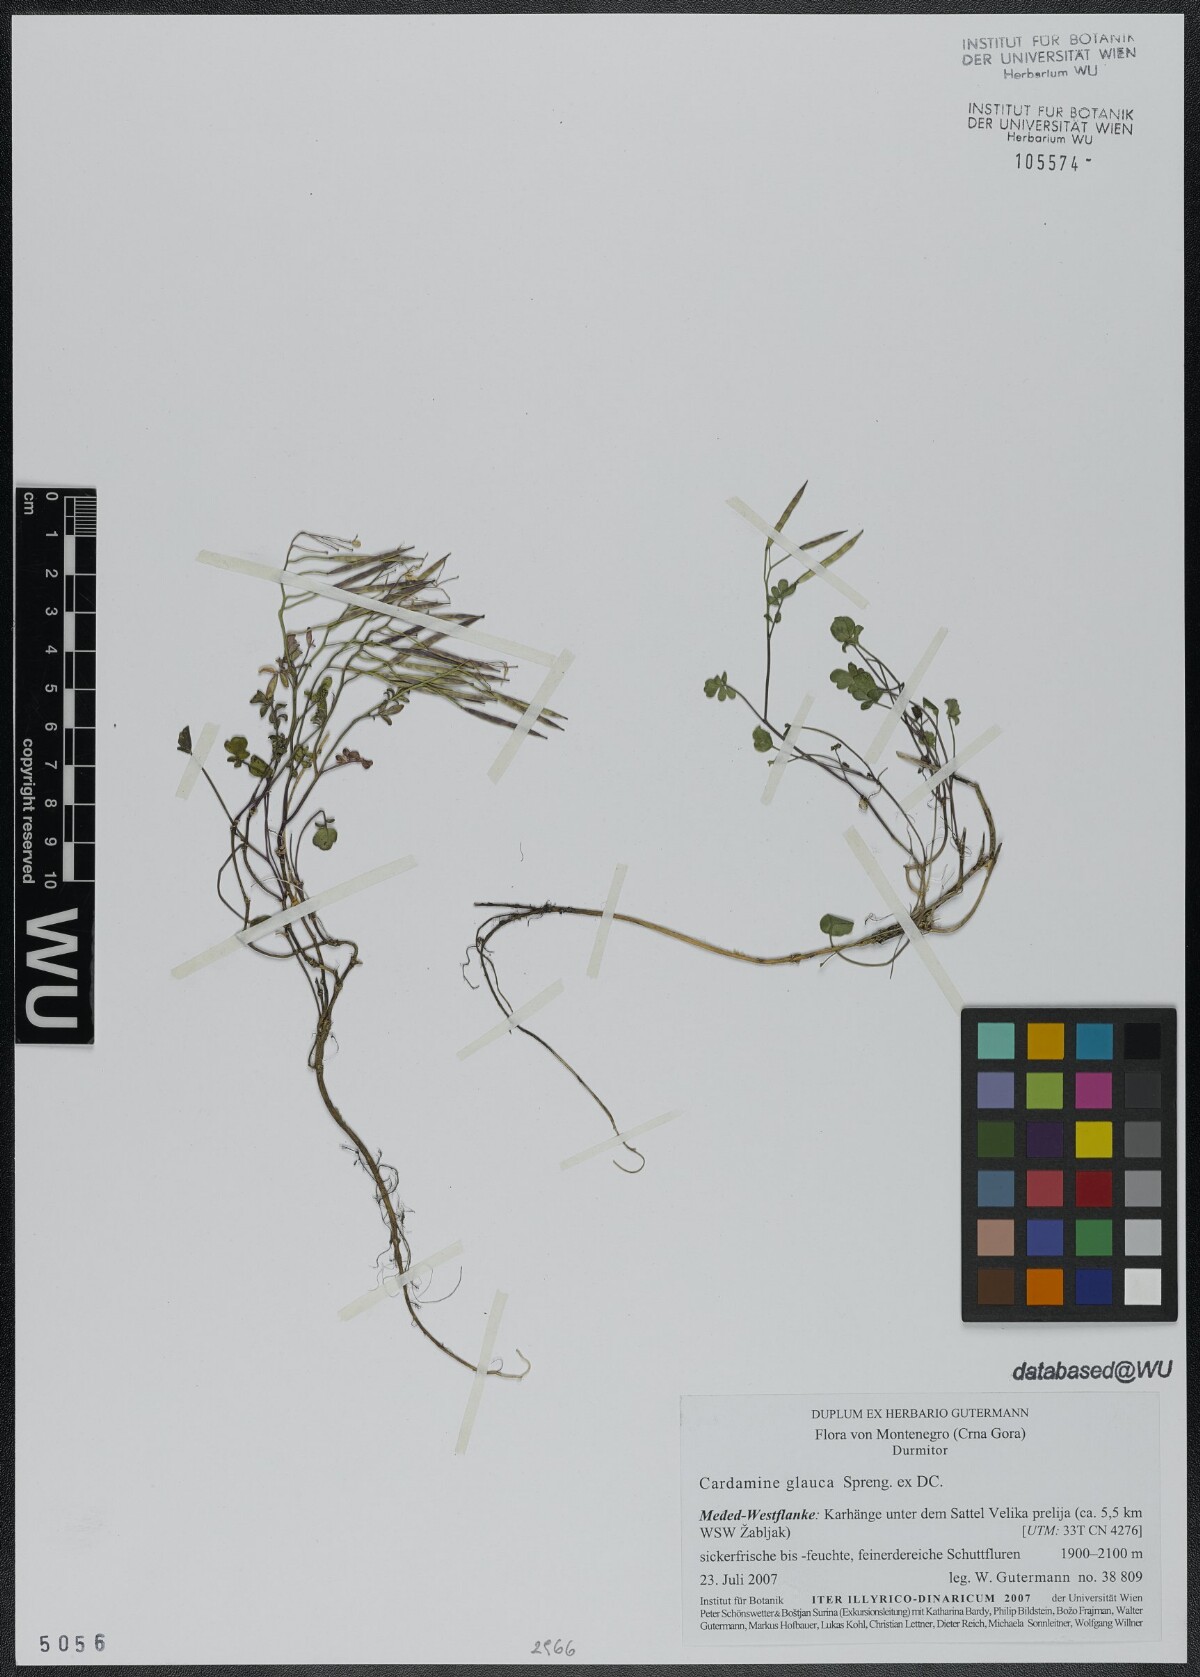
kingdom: Plantae
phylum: Tracheophyta
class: Magnoliopsida
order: Brassicales
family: Brassicaceae
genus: Cardamine
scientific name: Cardamine glauca
